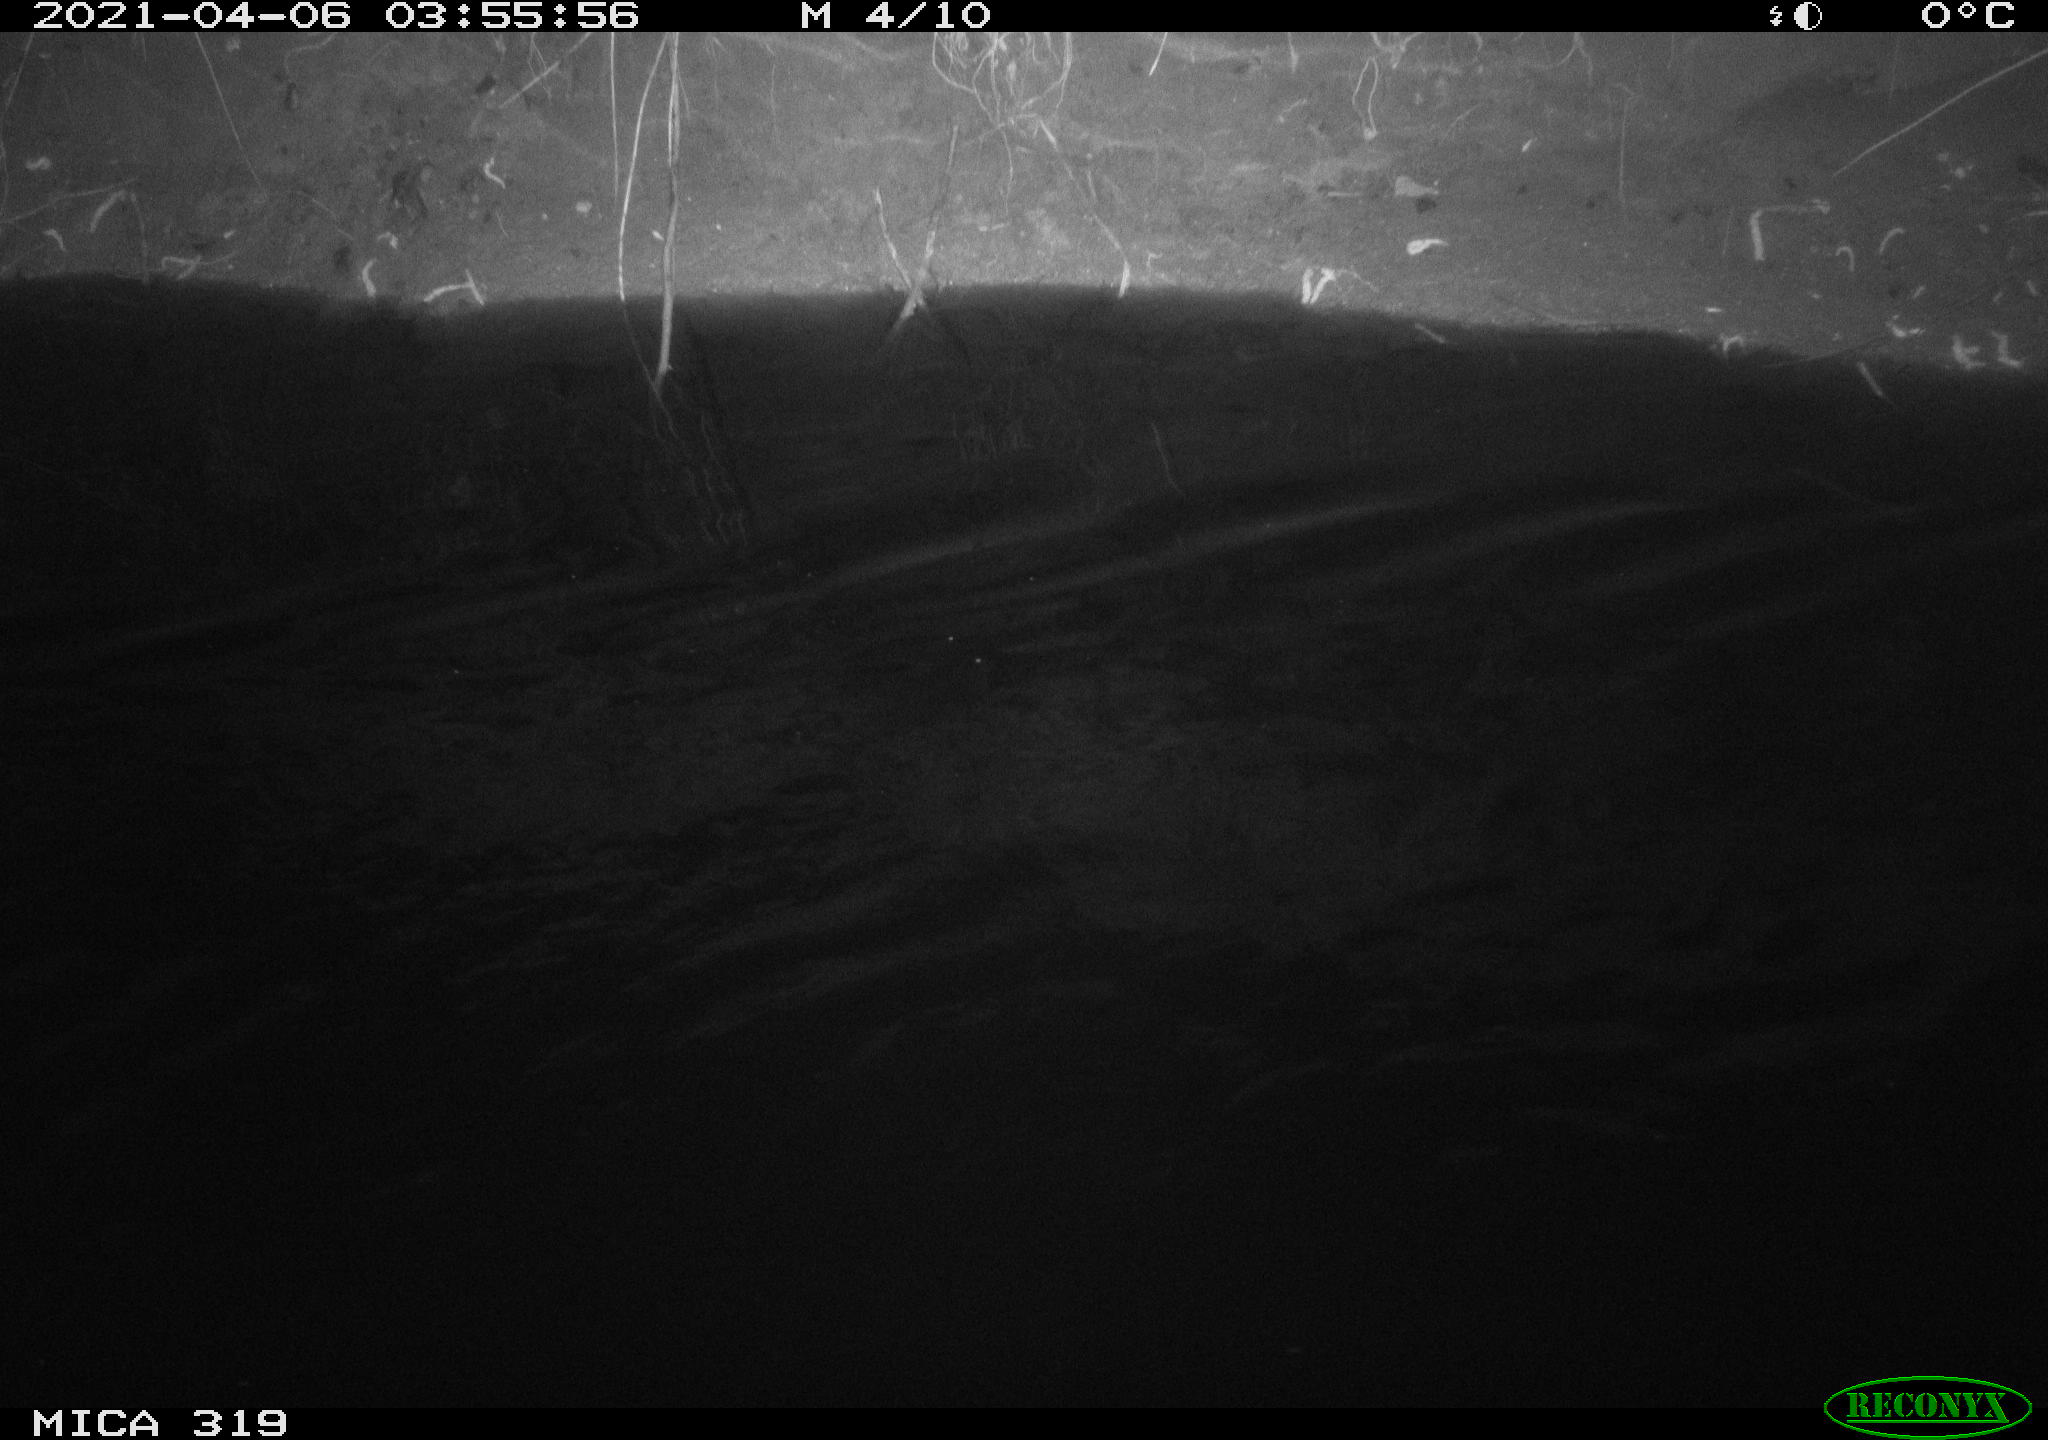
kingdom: Animalia
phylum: Chordata
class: Aves
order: Anseriformes
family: Anatidae
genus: Anas
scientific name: Anas platyrhynchos
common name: Mallard
